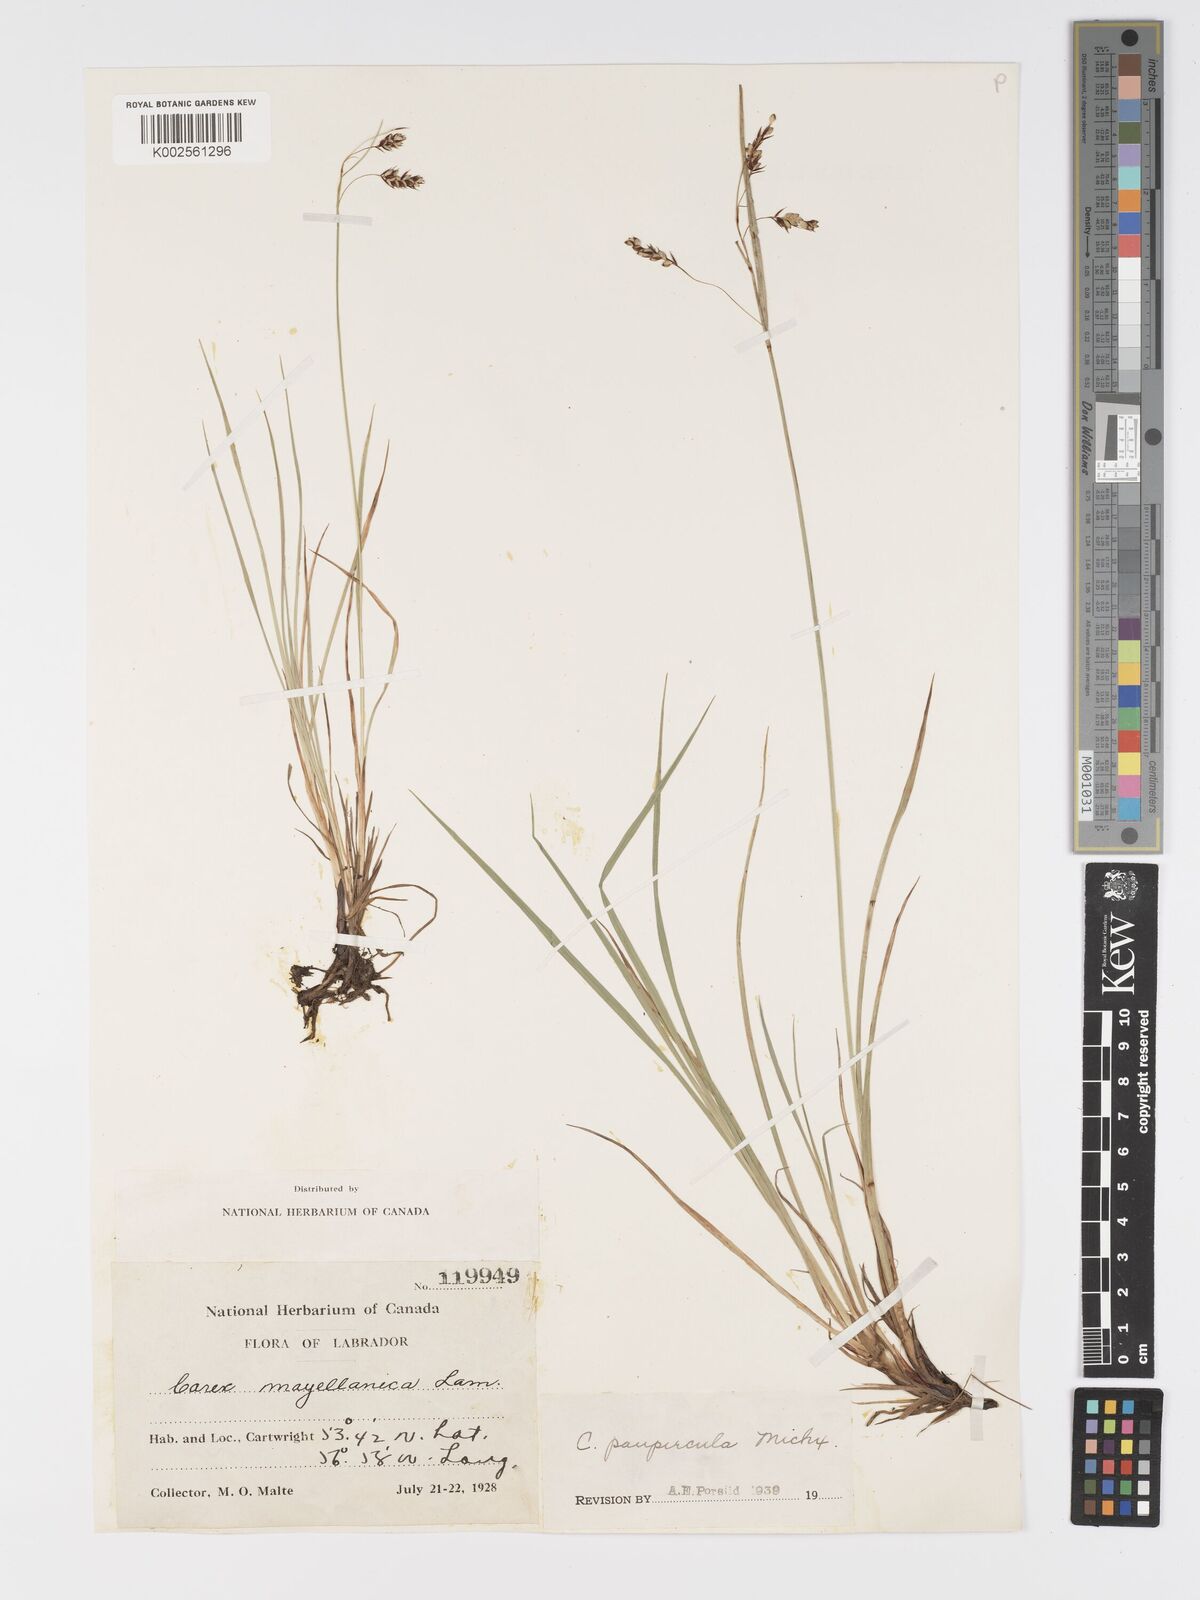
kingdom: Plantae
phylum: Tracheophyta
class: Liliopsida
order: Poales
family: Cyperaceae
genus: Carex
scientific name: Carex magellanica
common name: Bog sedge
